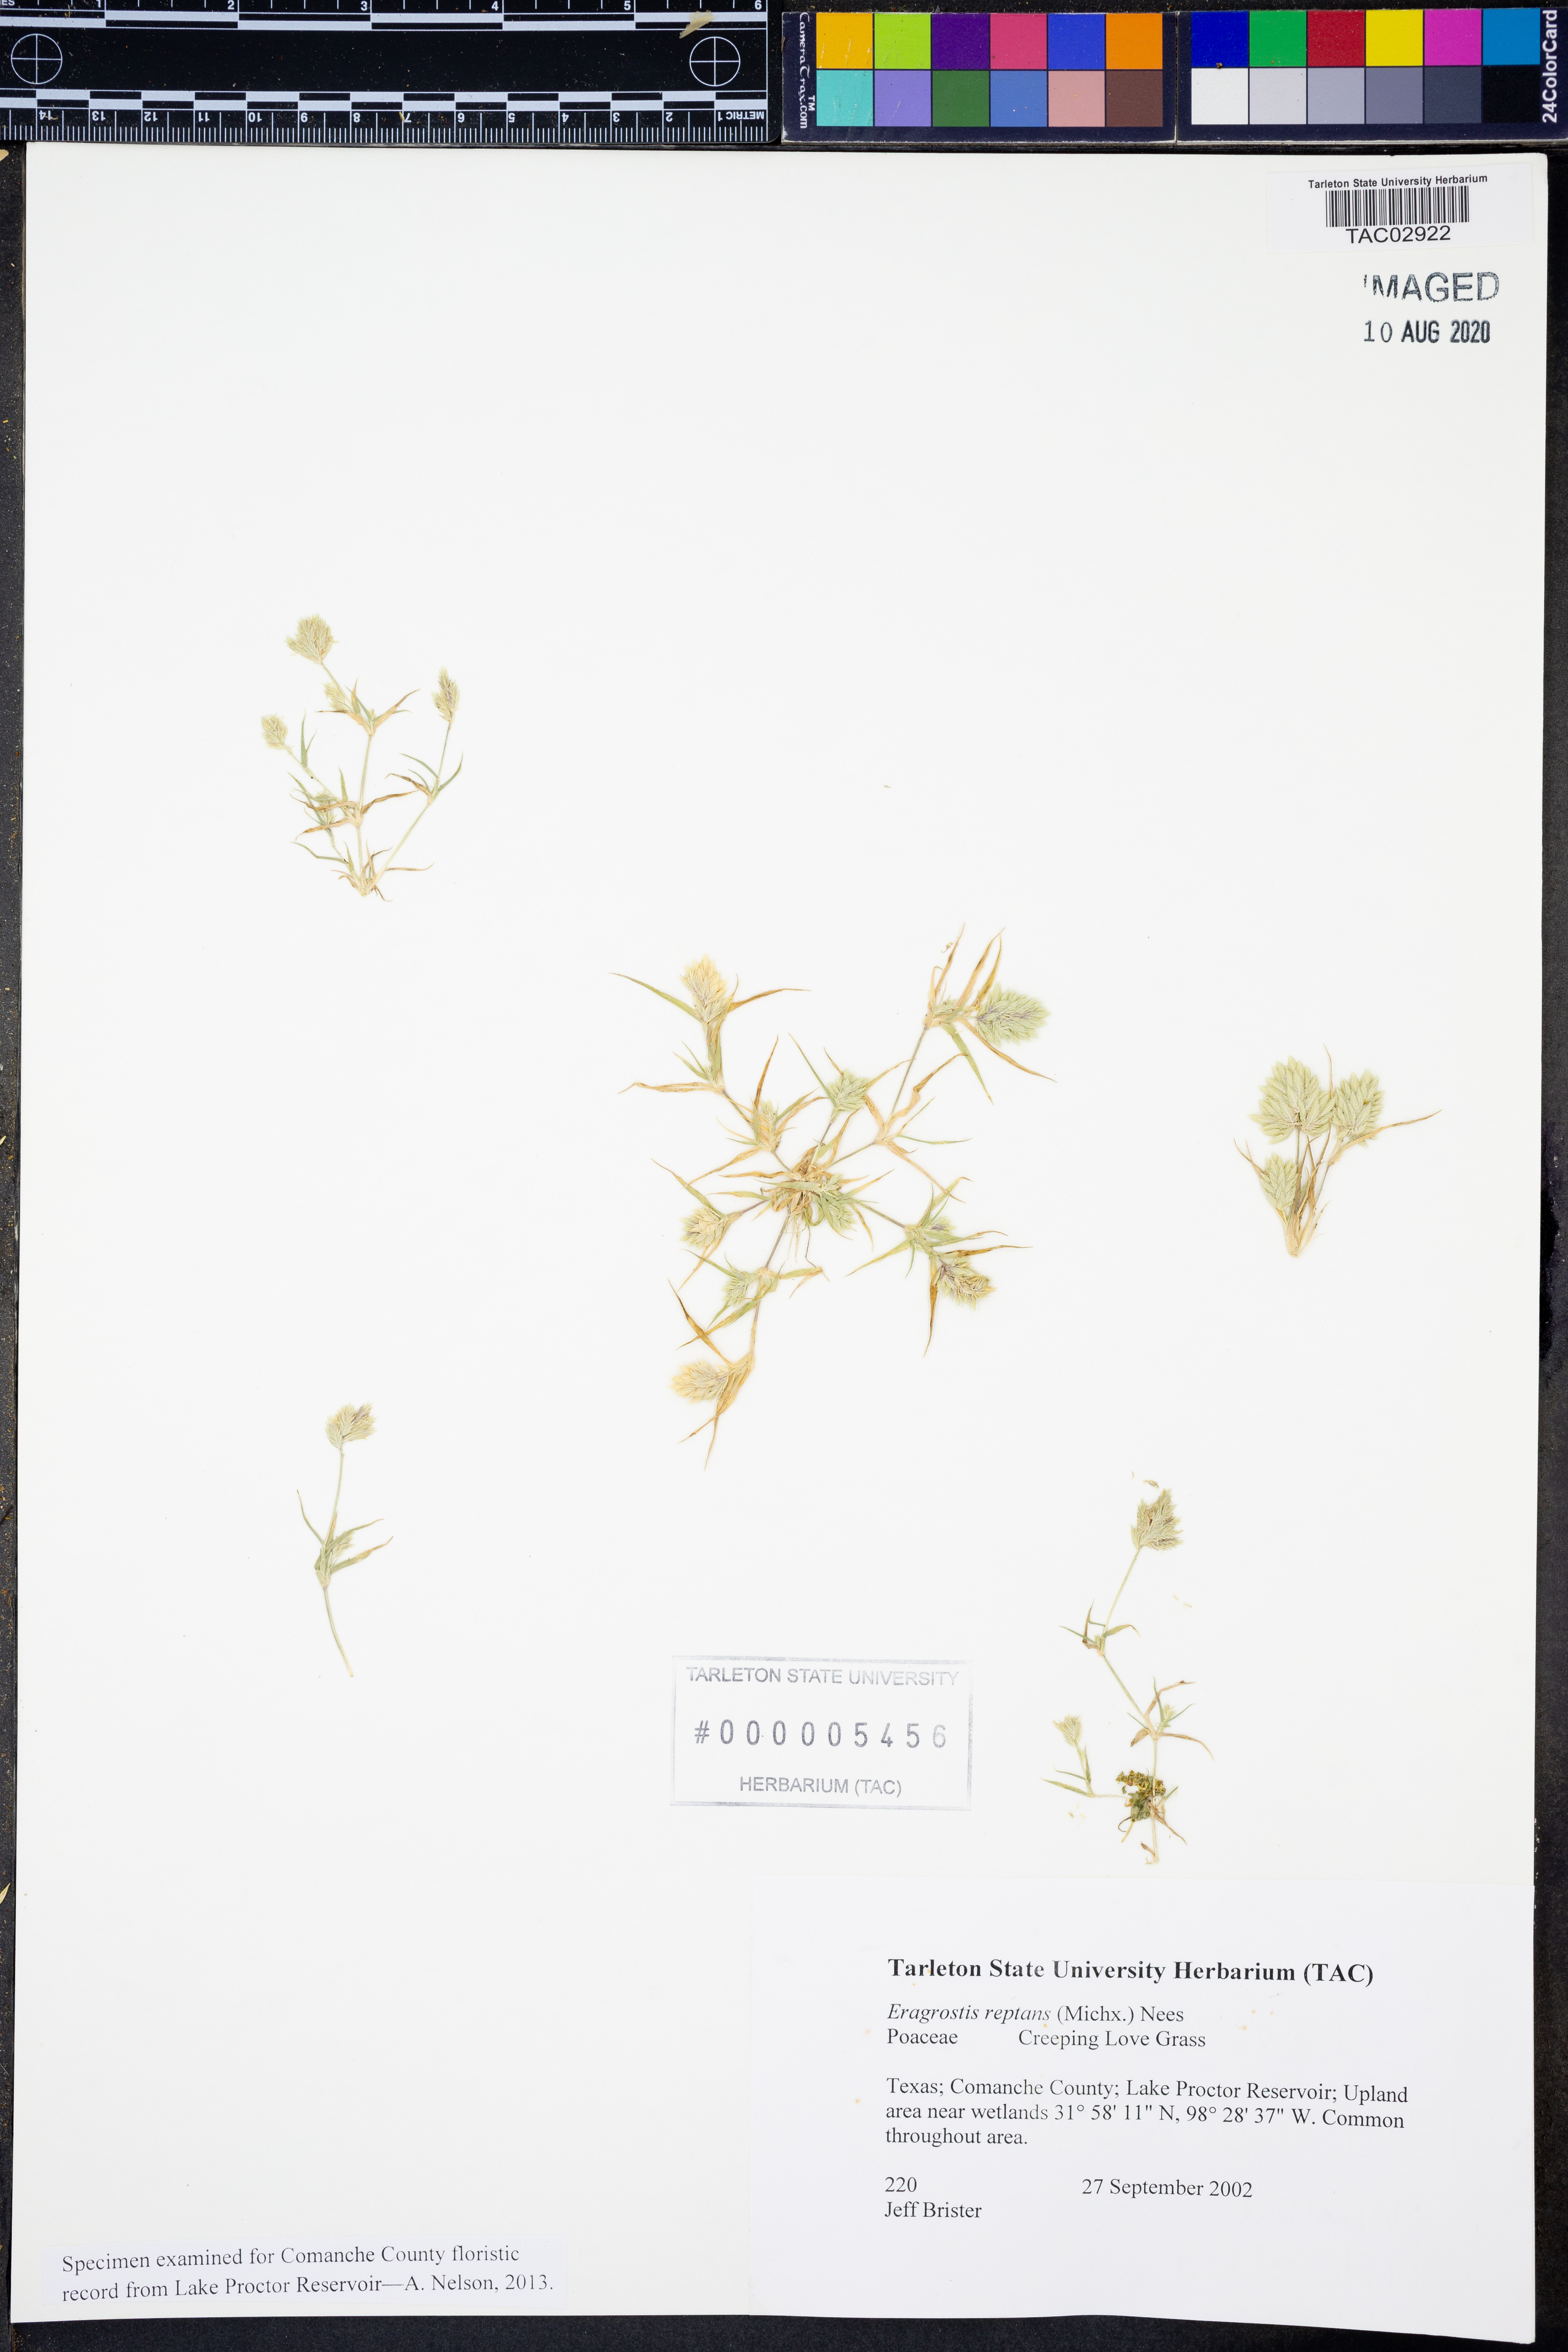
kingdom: Plantae
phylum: Tracheophyta
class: Liliopsida
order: Poales
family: Poaceae
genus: Eragrostis
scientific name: Eragrostis reptans
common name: Creeping love grass
